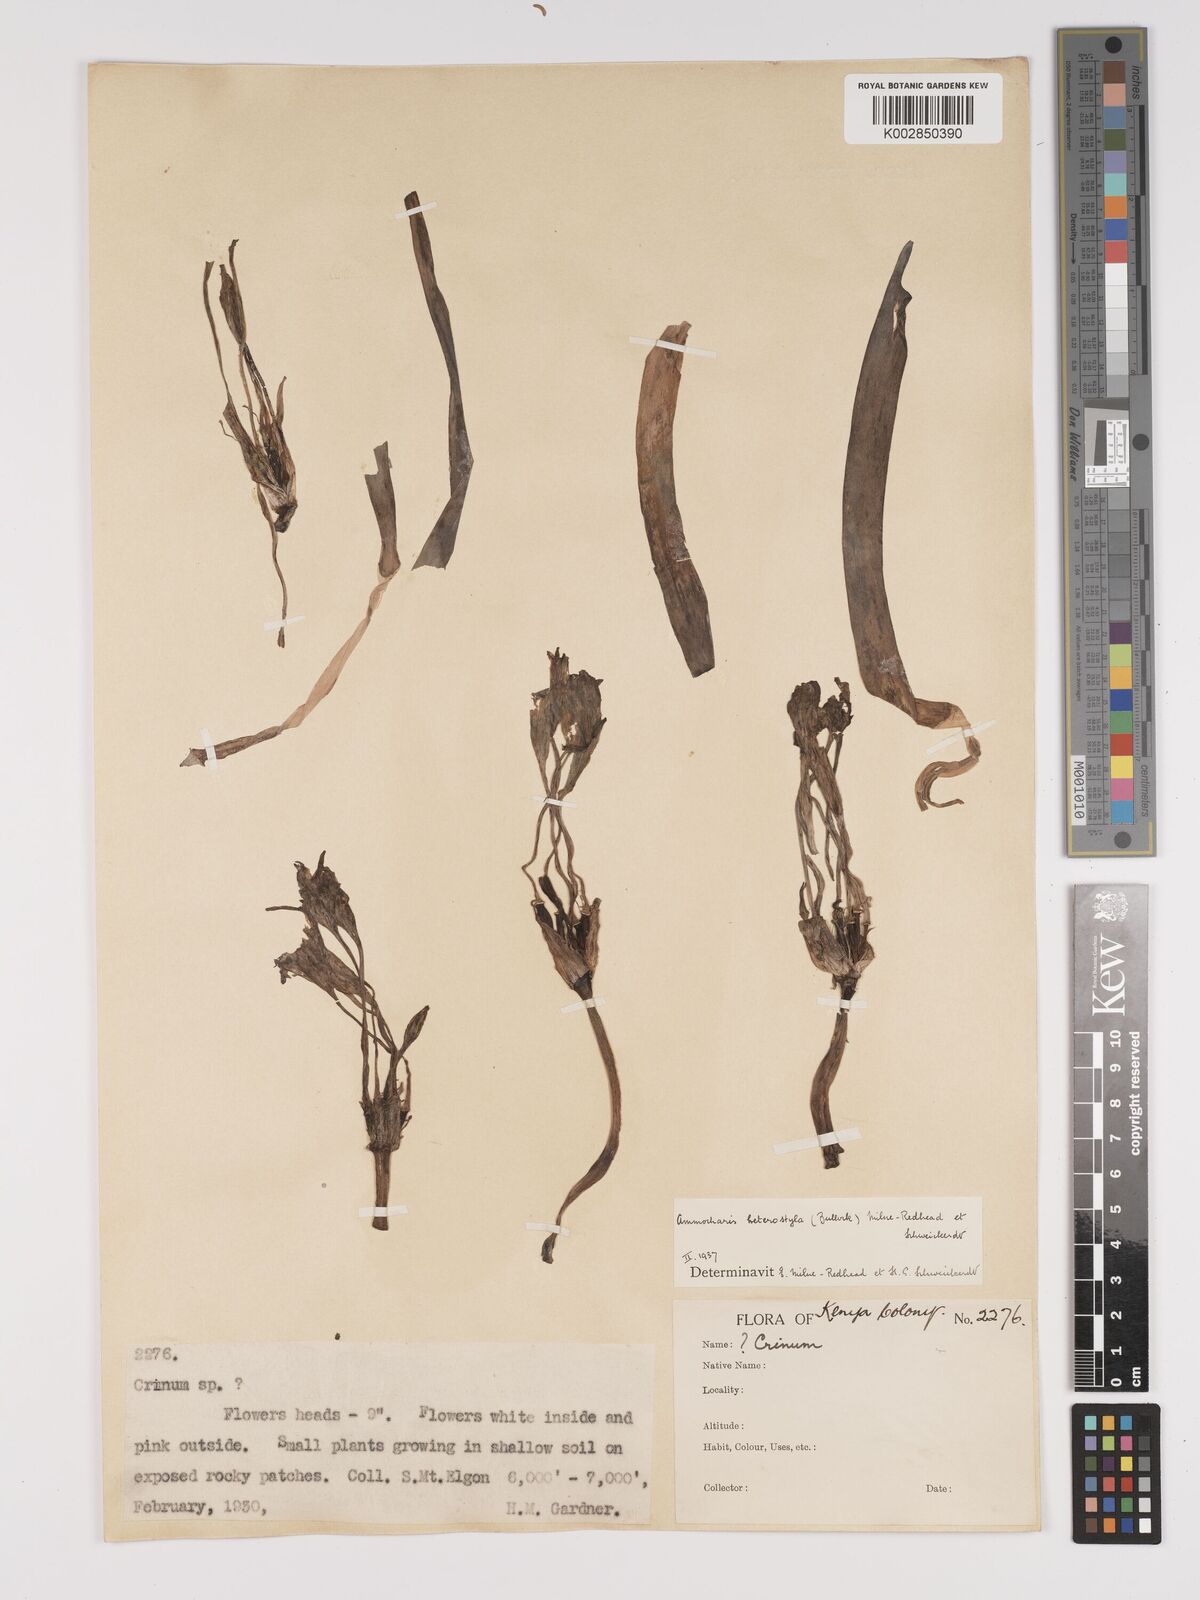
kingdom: Plantae
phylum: Tracheophyta
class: Liliopsida
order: Asparagales
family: Amaryllidaceae
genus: Ammocharis
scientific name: Ammocharis angolensis
